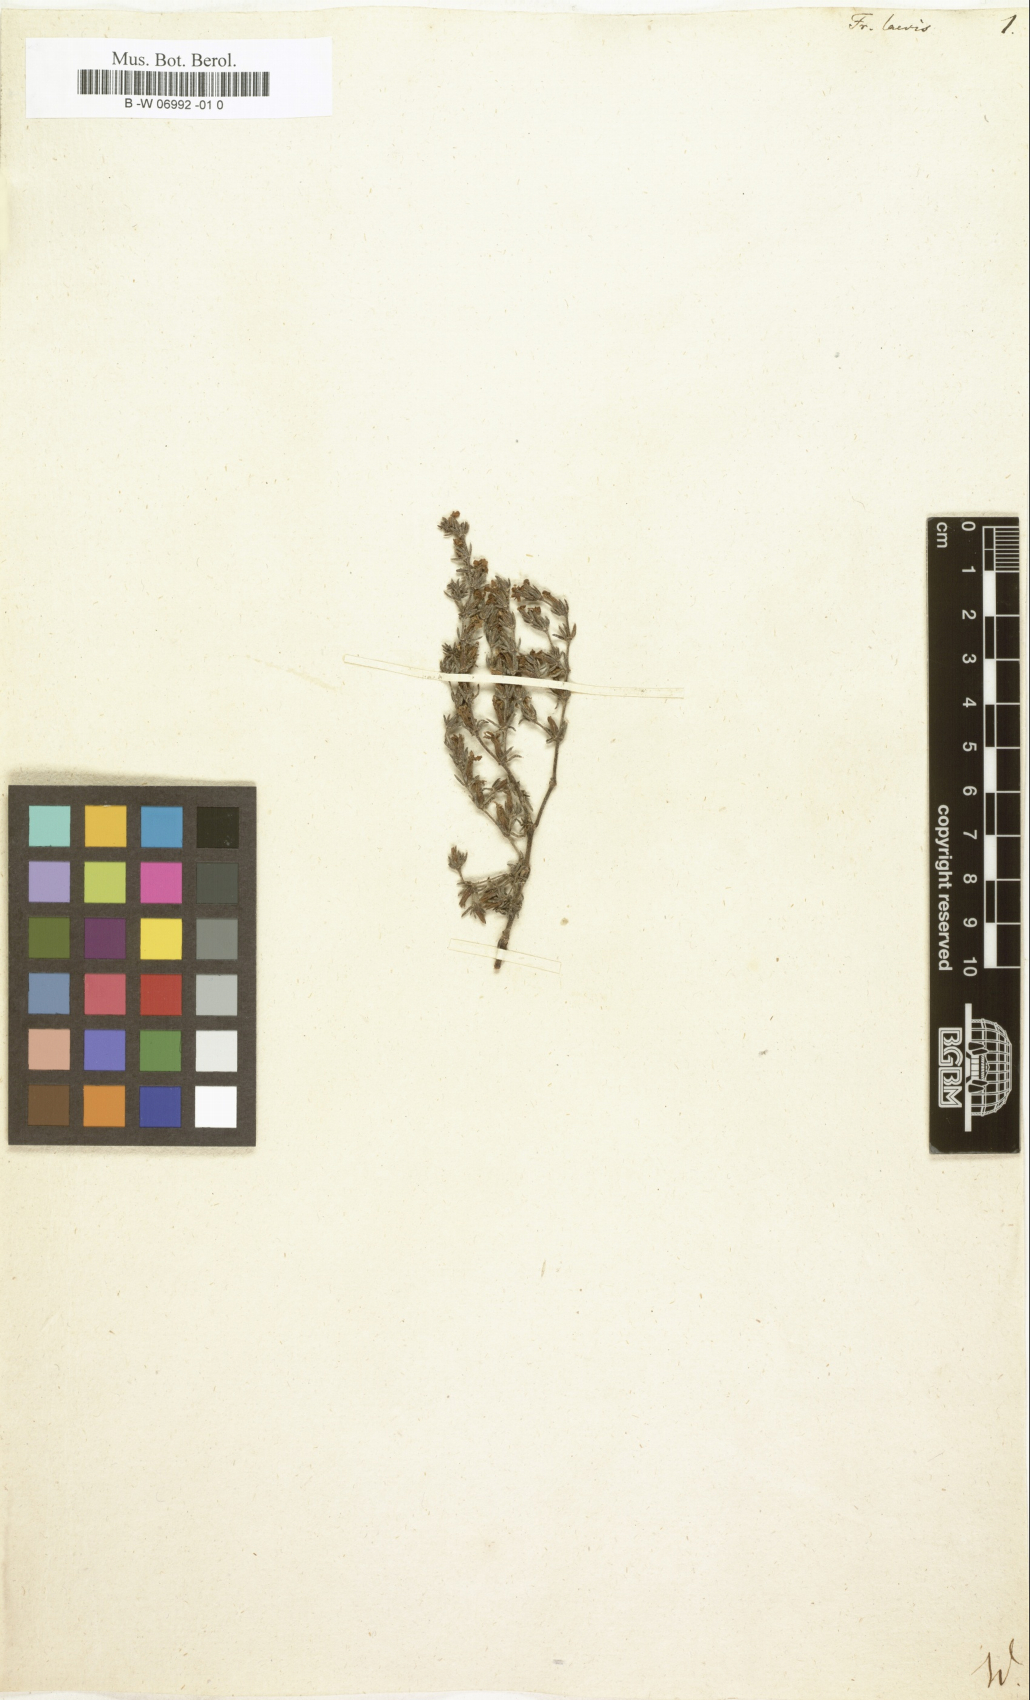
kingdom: Plantae
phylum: Tracheophyta
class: Magnoliopsida
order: Caryophyllales
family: Frankeniaceae
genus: Frankenia
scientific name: Frankenia laevis
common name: Sea-heath
